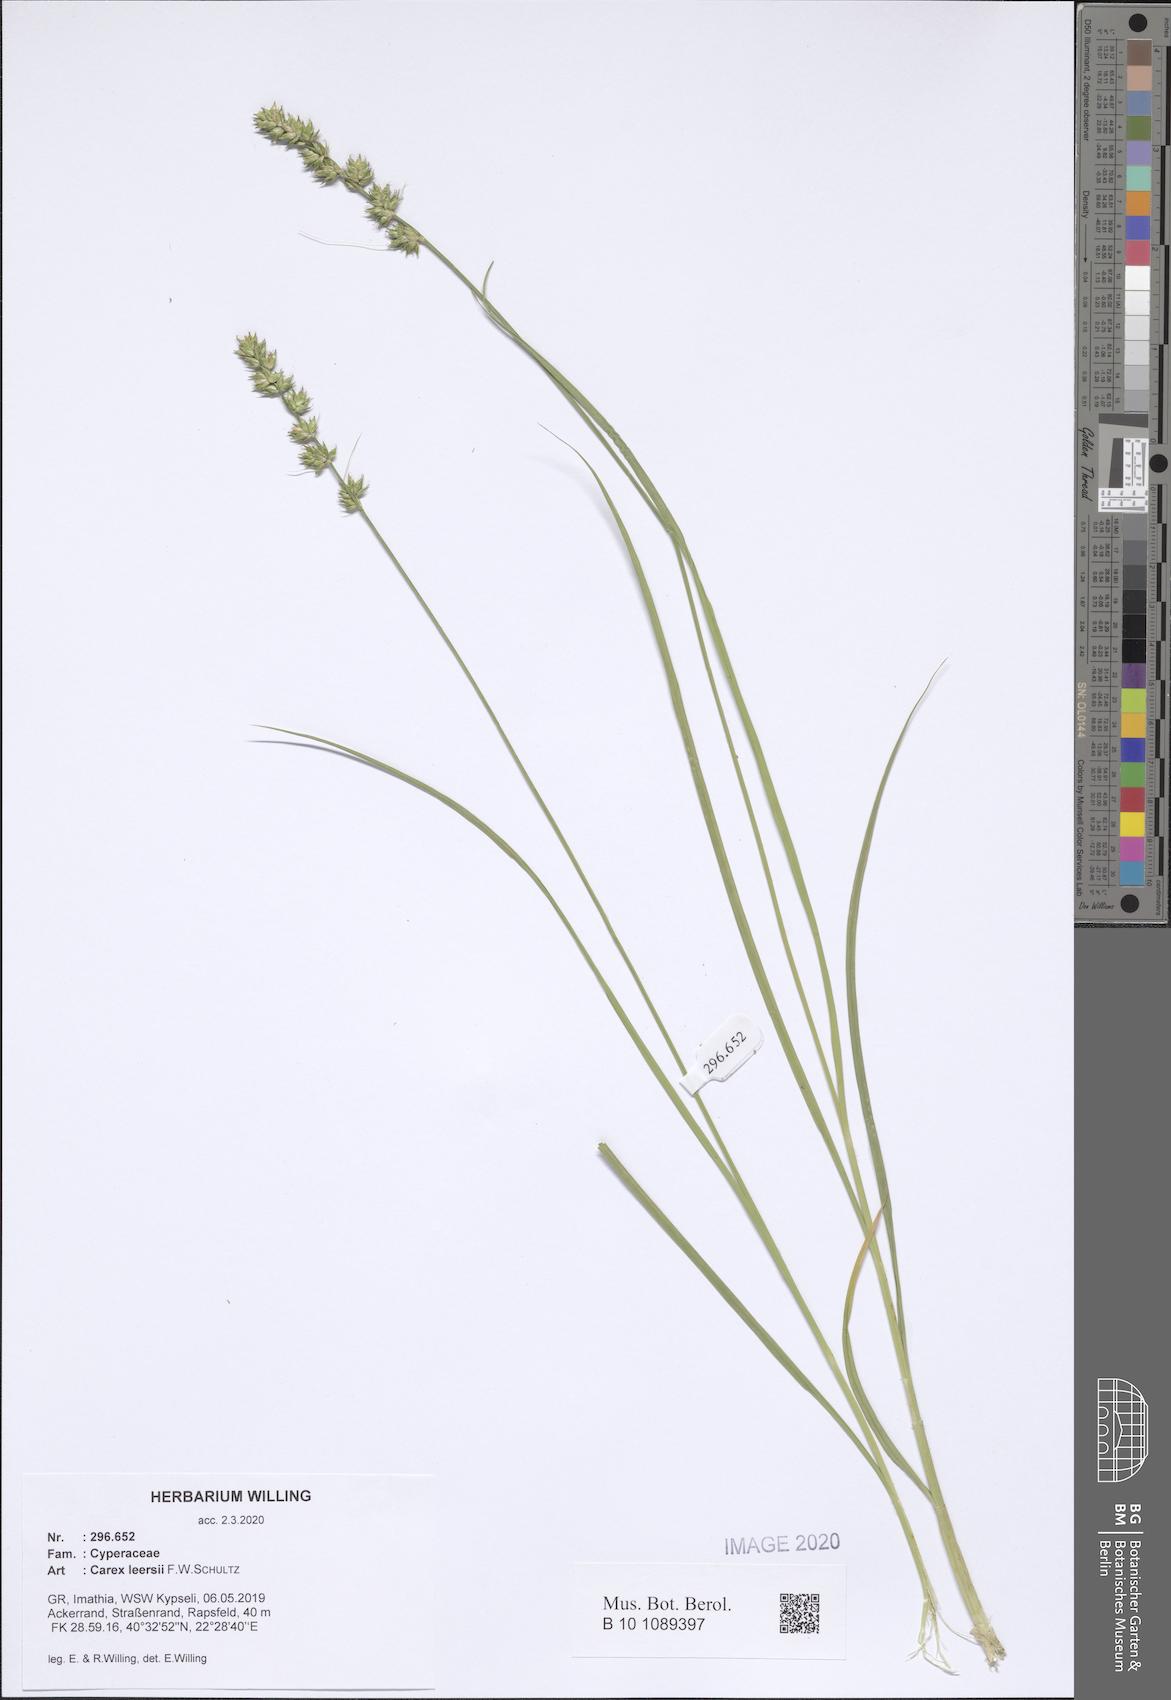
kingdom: Plantae
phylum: Tracheophyta
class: Liliopsida
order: Poales
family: Cyperaceae
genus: Carex
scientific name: Carex leersii
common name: Leers' sedge
